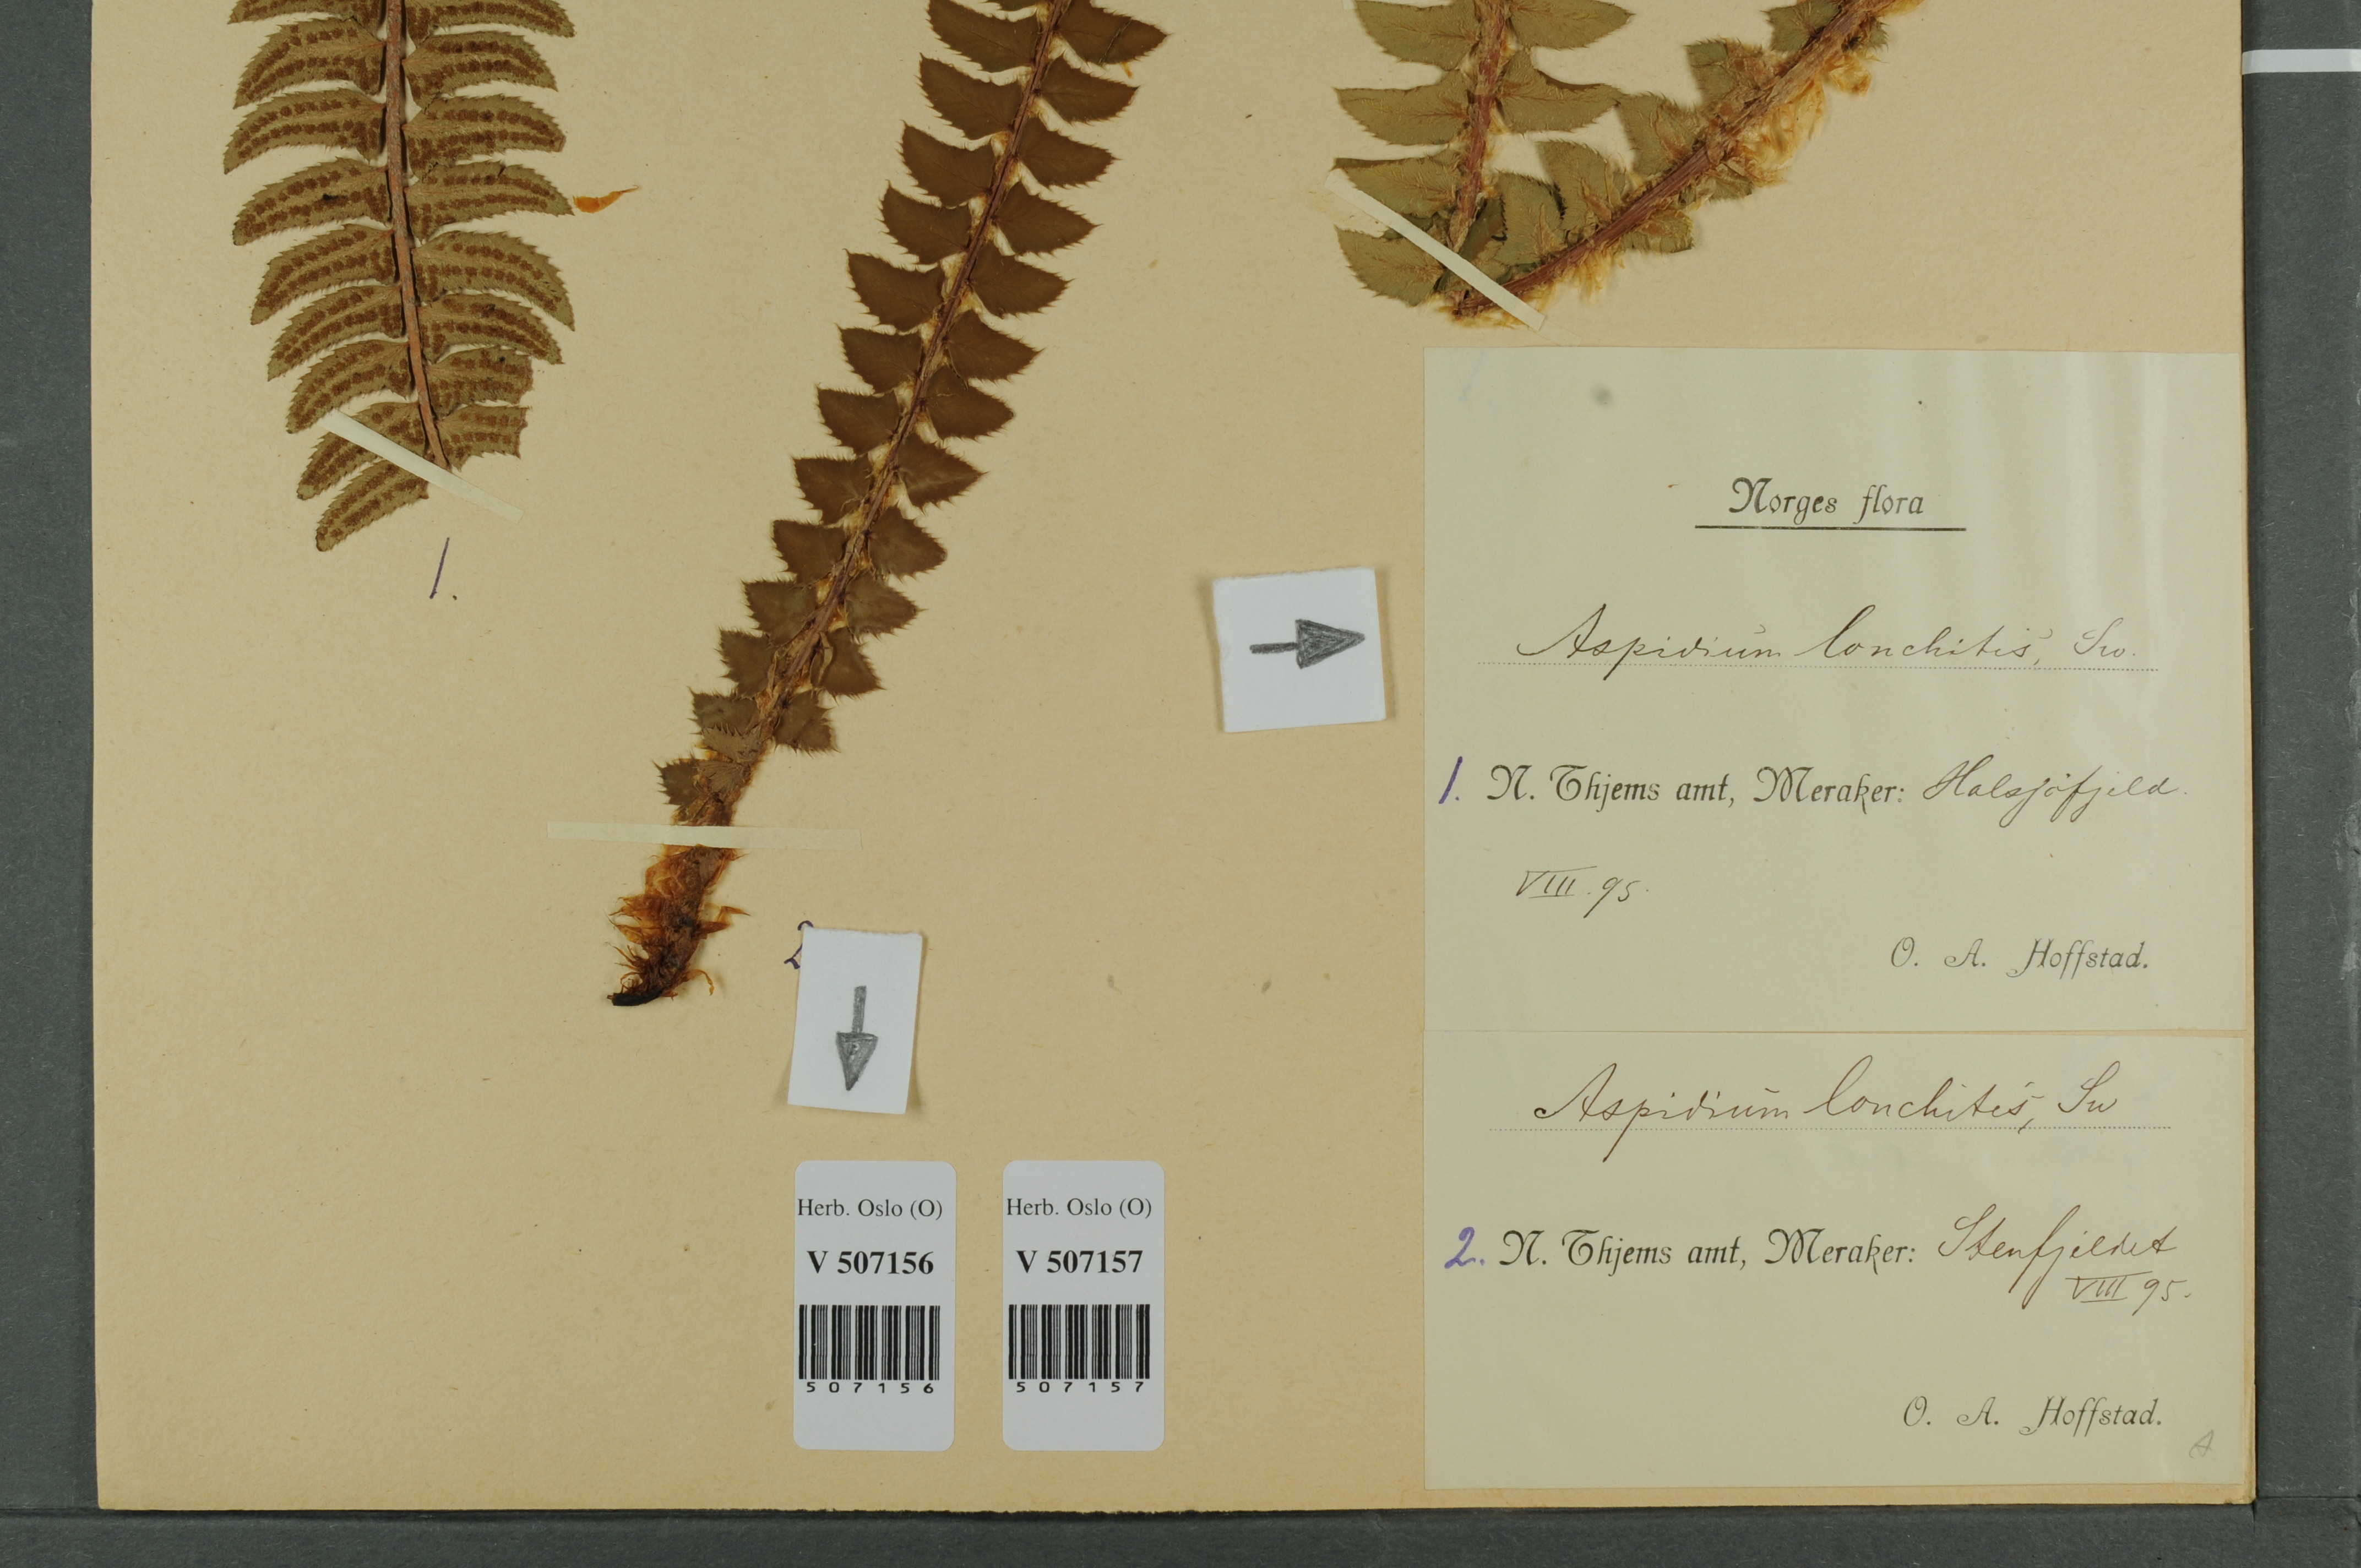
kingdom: Plantae
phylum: Tracheophyta
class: Polypodiopsida
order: Polypodiales
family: Dryopteridaceae
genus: Polystichum
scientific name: Polystichum lonchitis
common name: Holly fern
